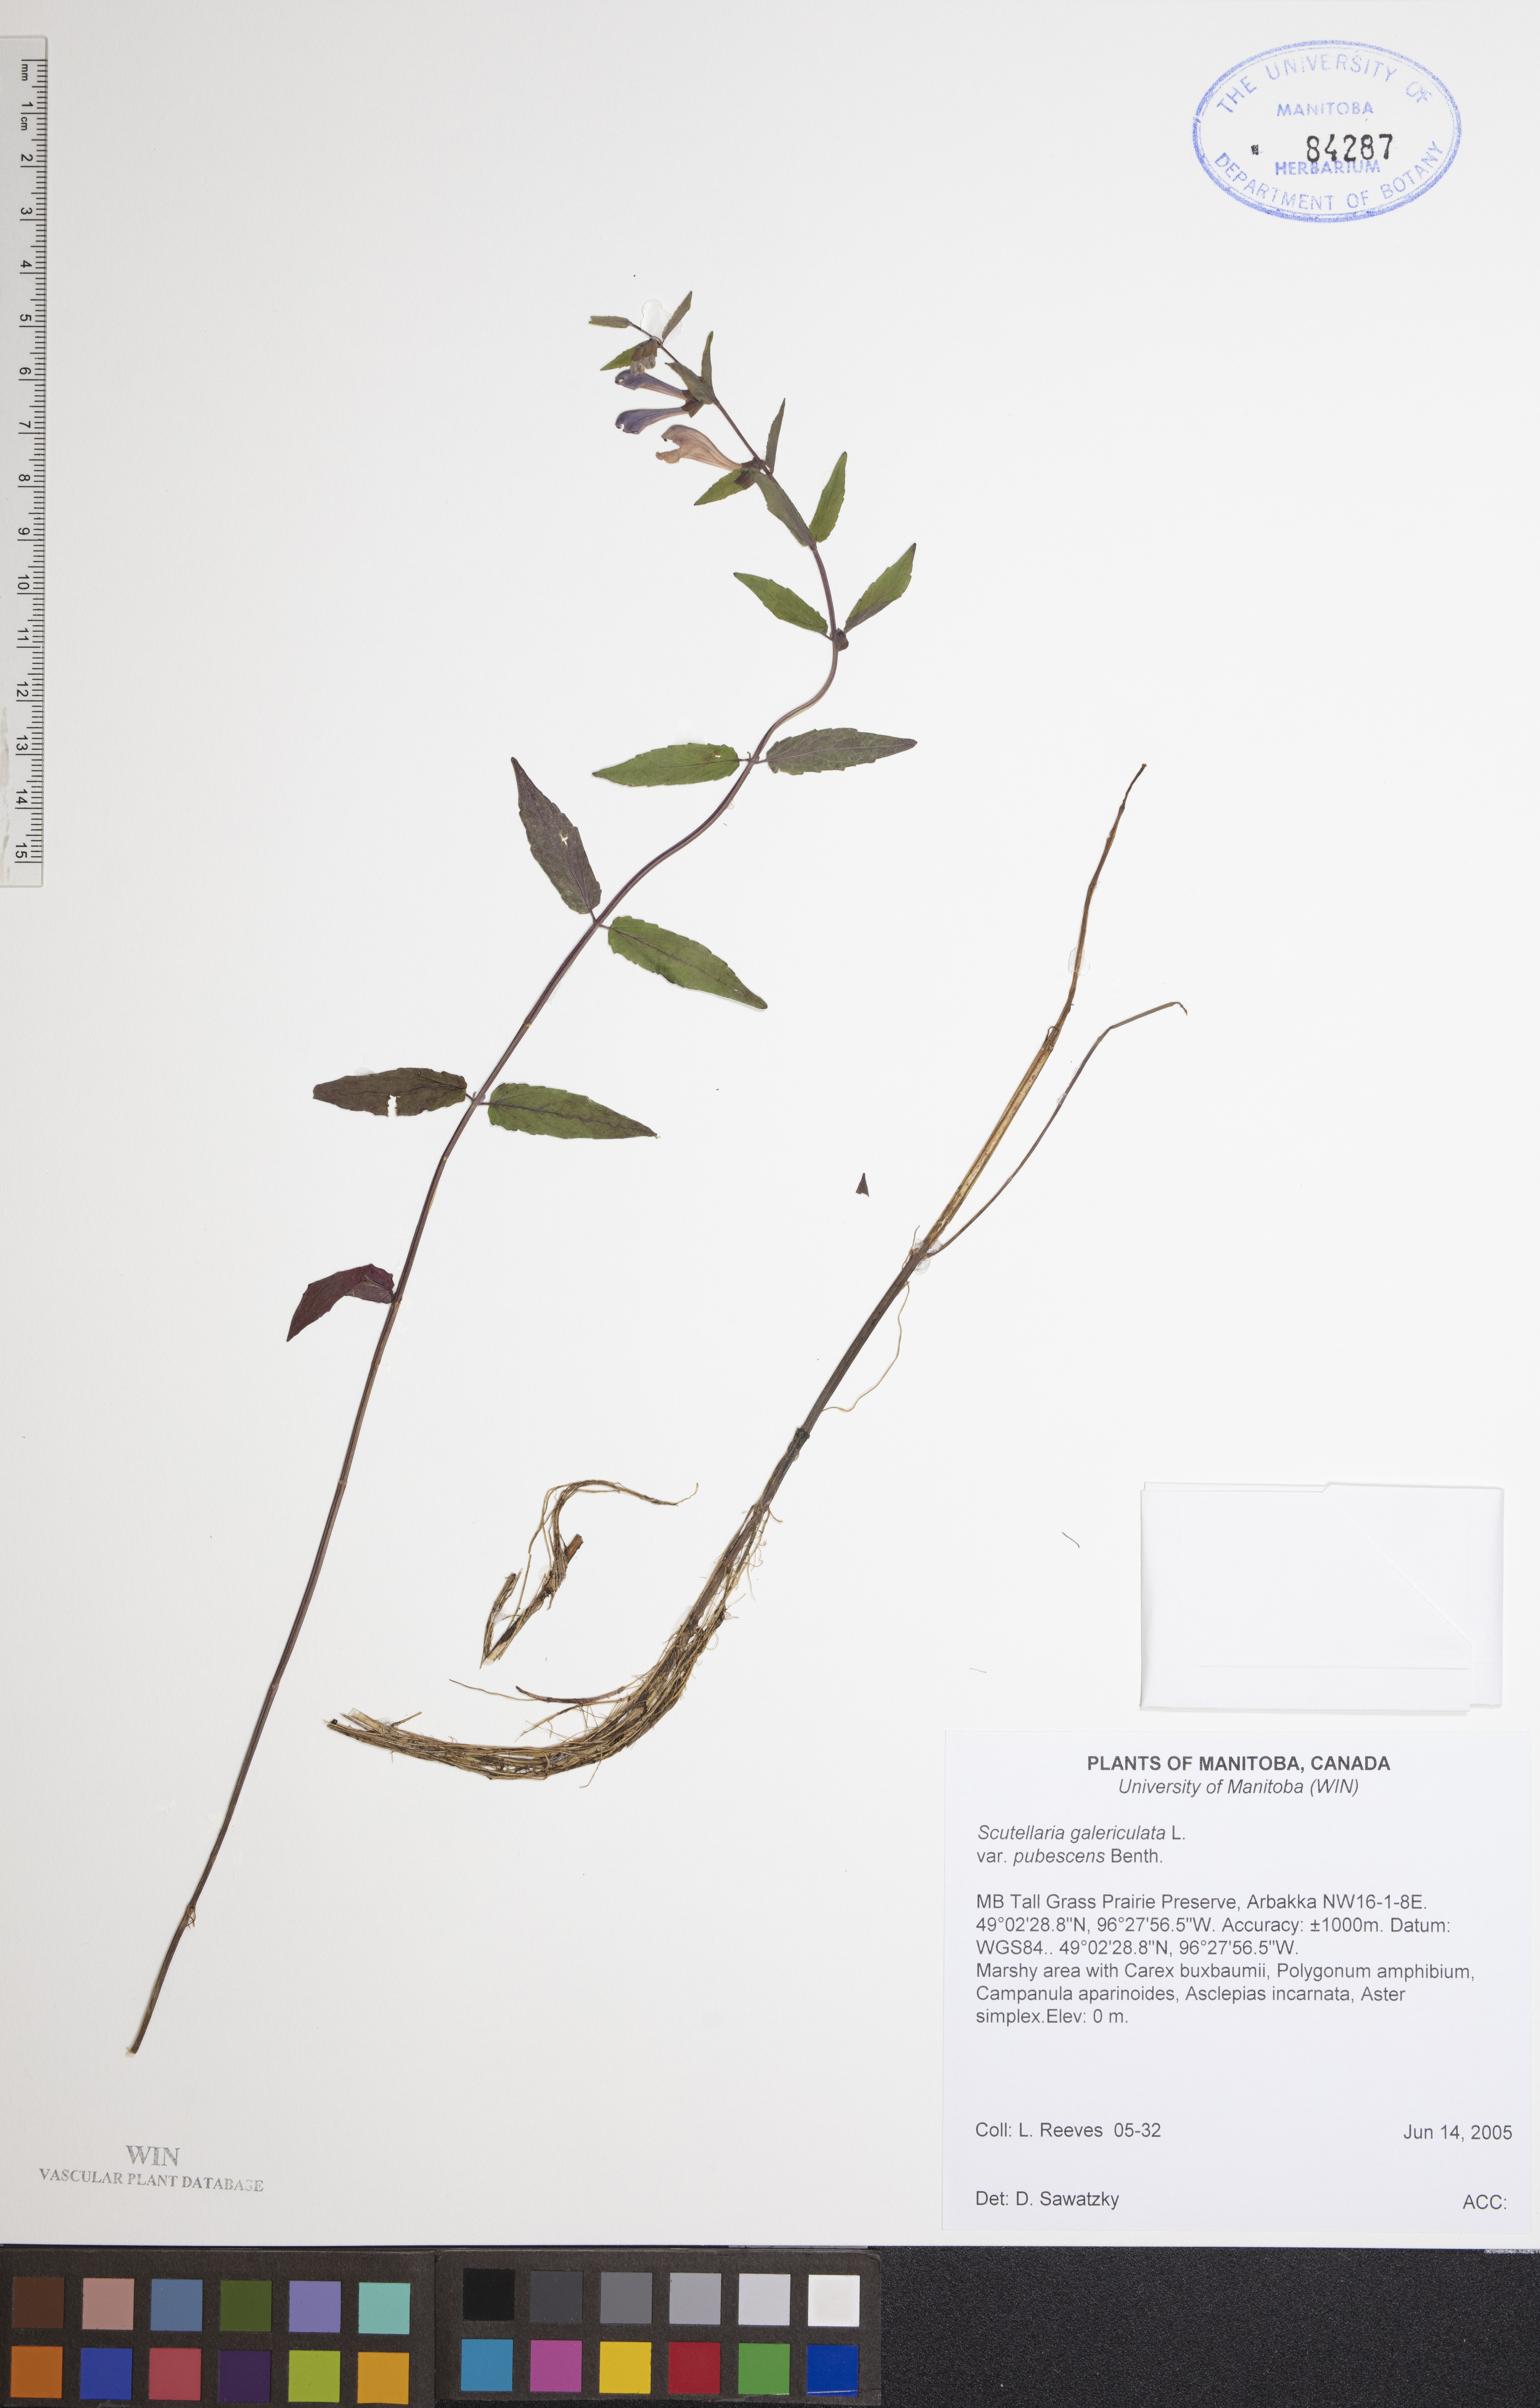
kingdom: Plantae
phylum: Tracheophyta
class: Magnoliopsida
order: Lamiales
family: Lamiaceae
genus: Scutellaria
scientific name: Scutellaria nicholsonii
